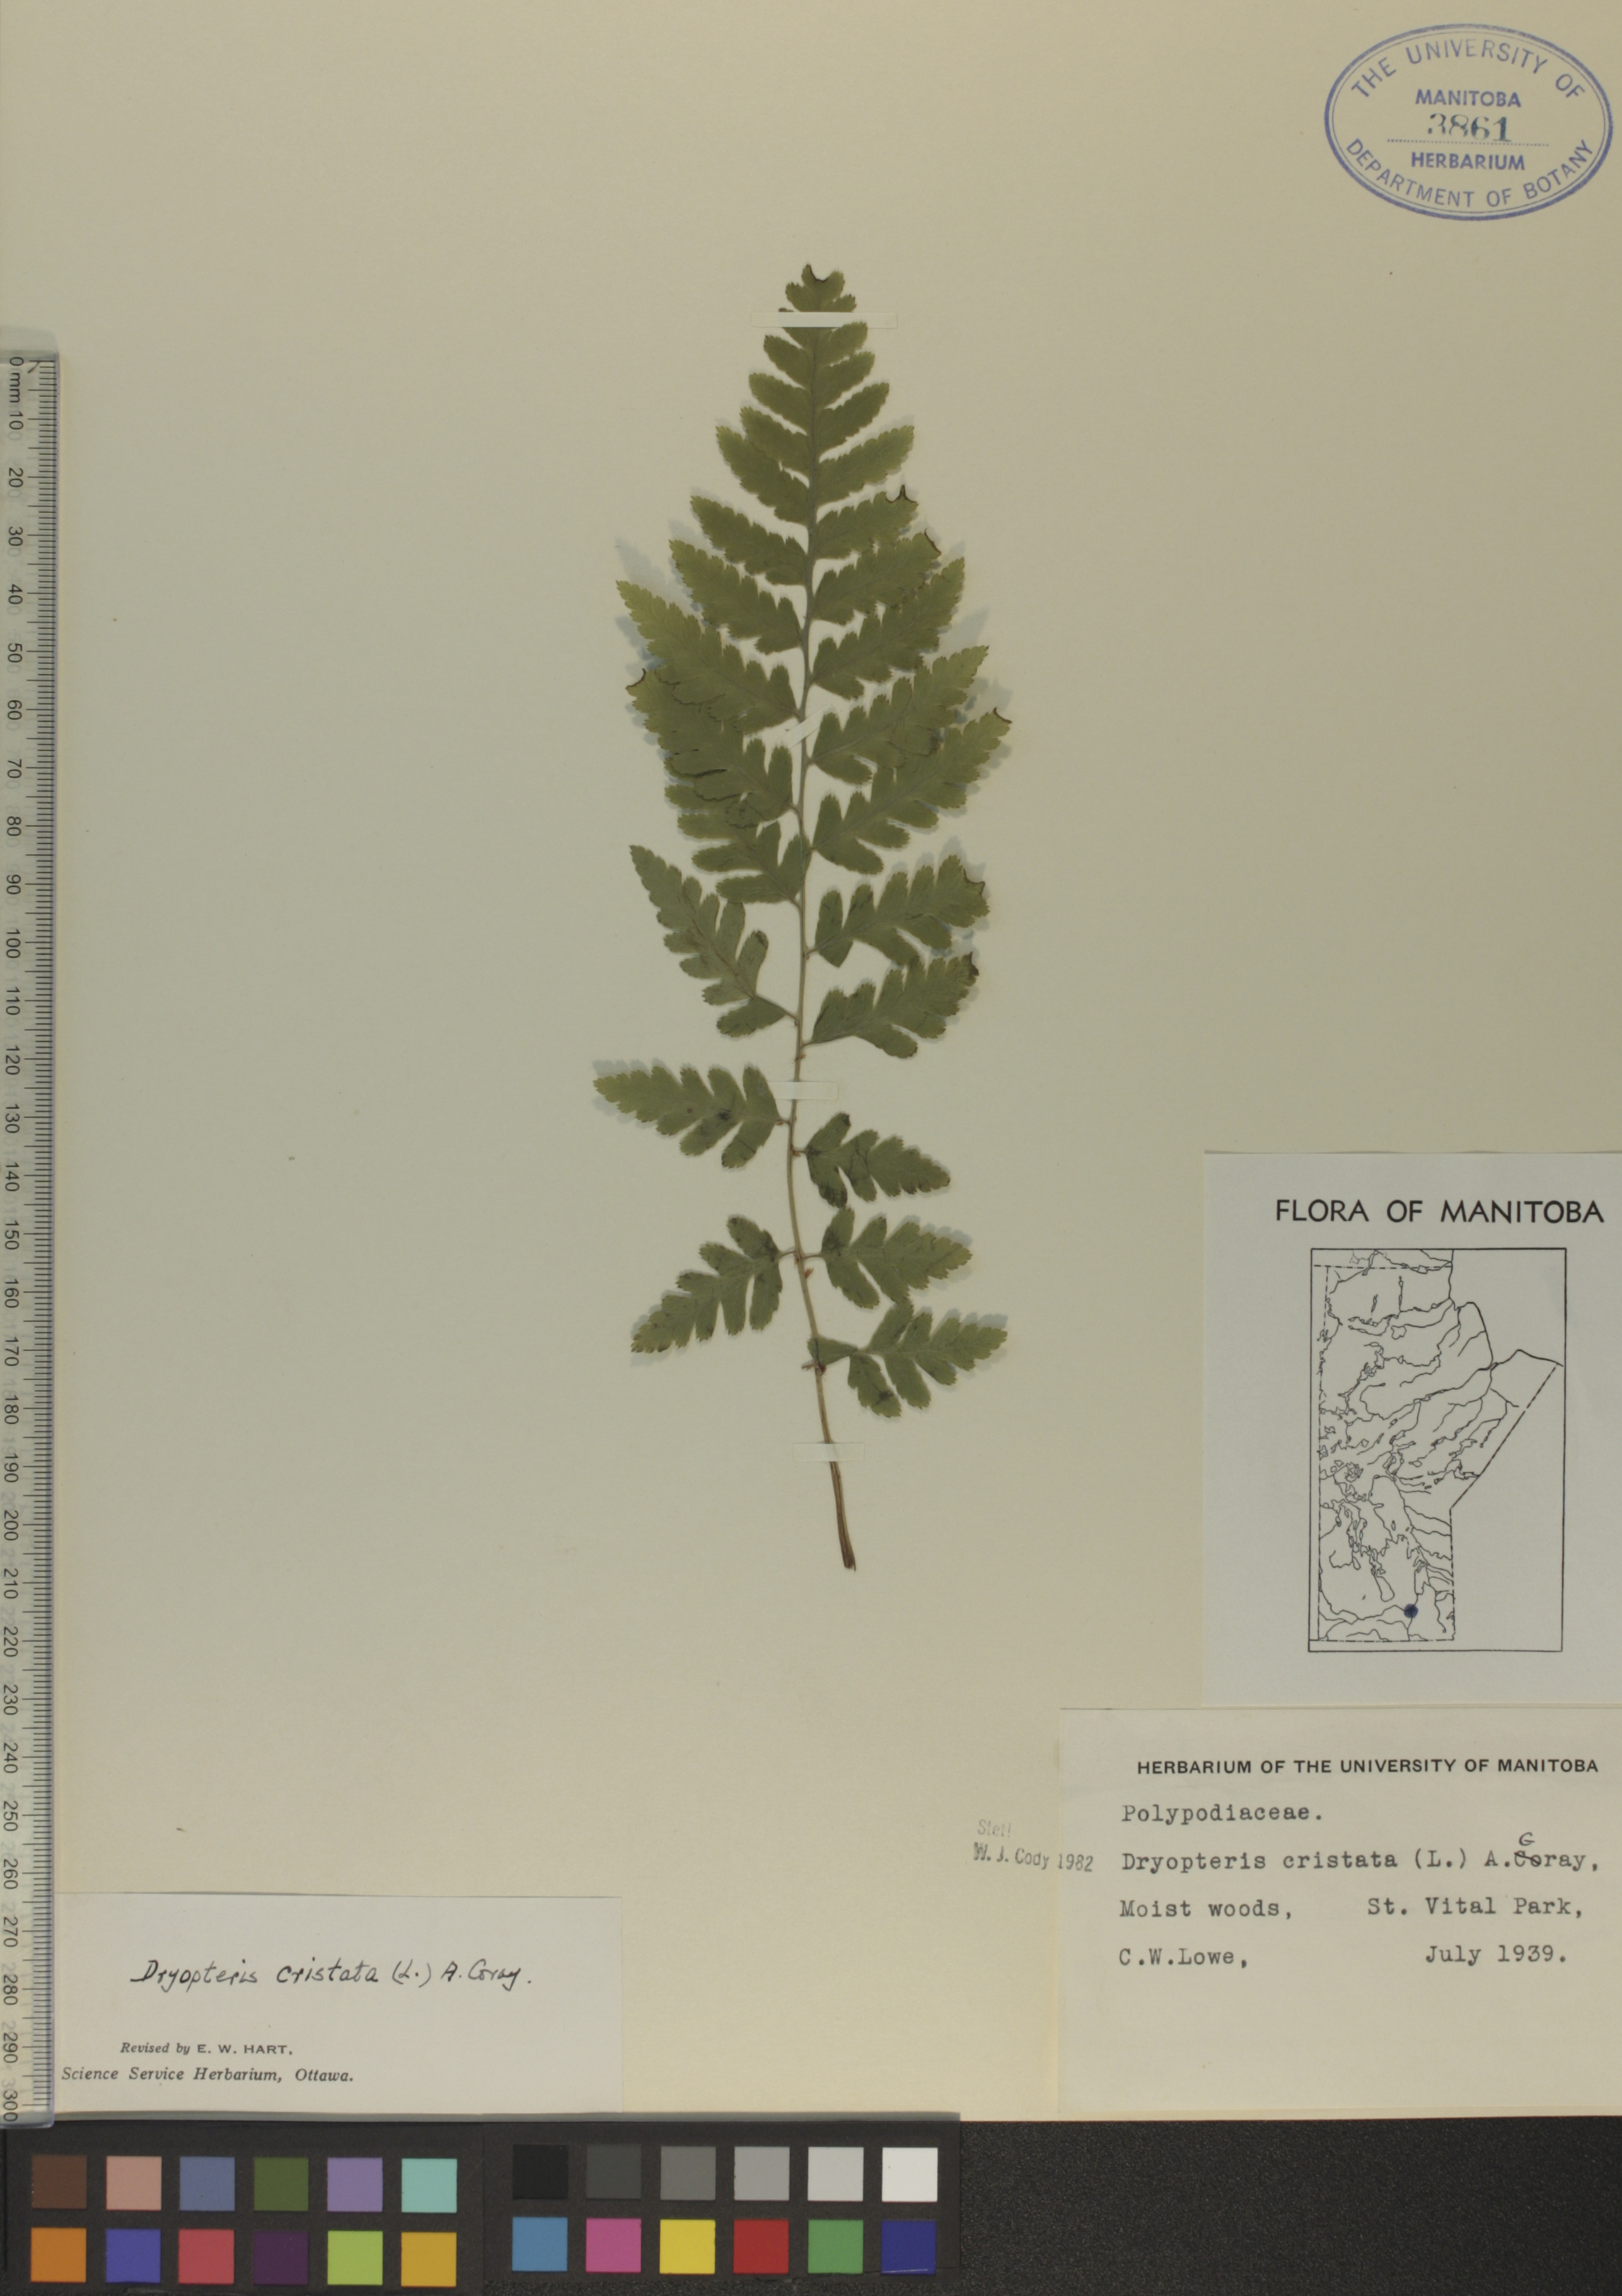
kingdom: Plantae
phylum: Tracheophyta
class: Polypodiopsida
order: Polypodiales
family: Dryopteridaceae
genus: Dryopteris
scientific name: Dryopteris cristata
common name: Crested wood fern
